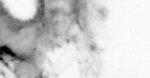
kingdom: Animalia
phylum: Arthropoda
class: Copepoda
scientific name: Copepoda
